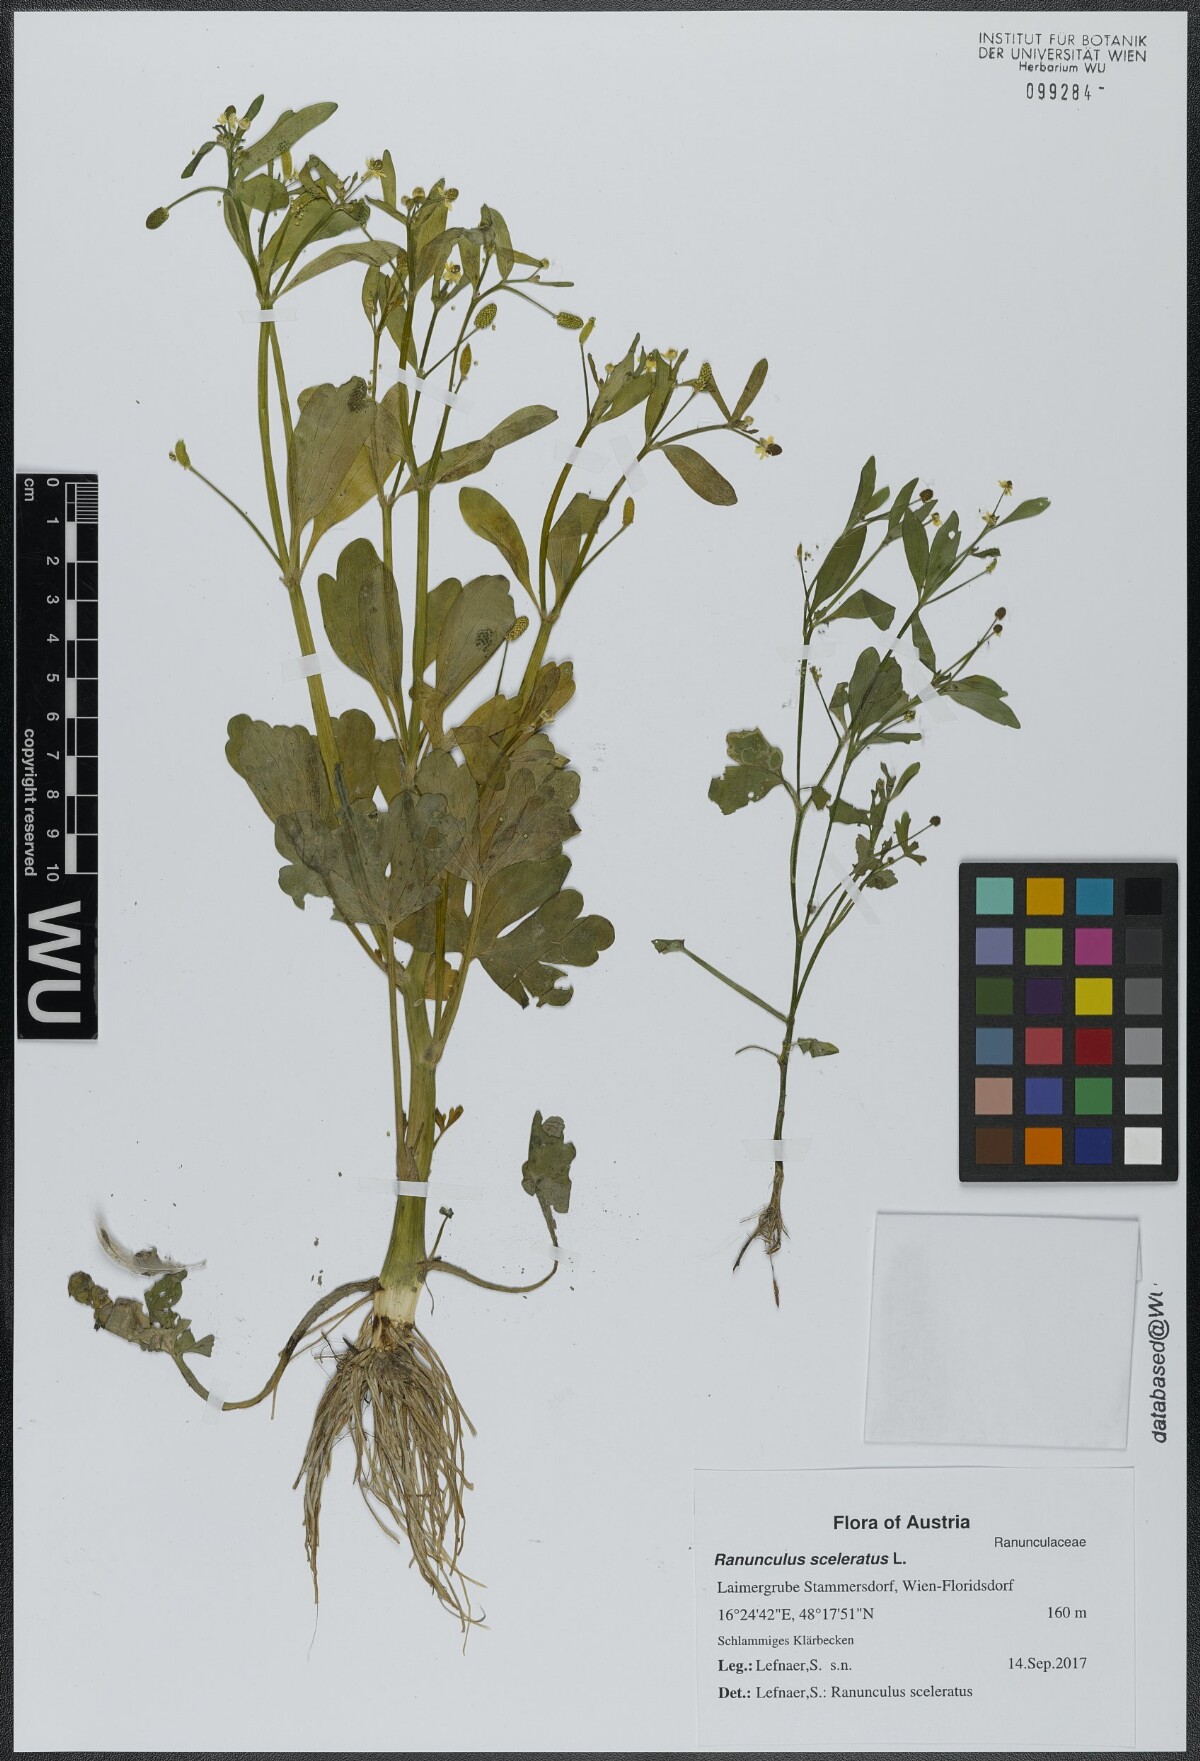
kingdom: Plantae
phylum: Tracheophyta
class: Magnoliopsida
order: Ranunculales
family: Ranunculaceae
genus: Ranunculus
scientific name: Ranunculus sceleratus
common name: Celery-leaved buttercup
